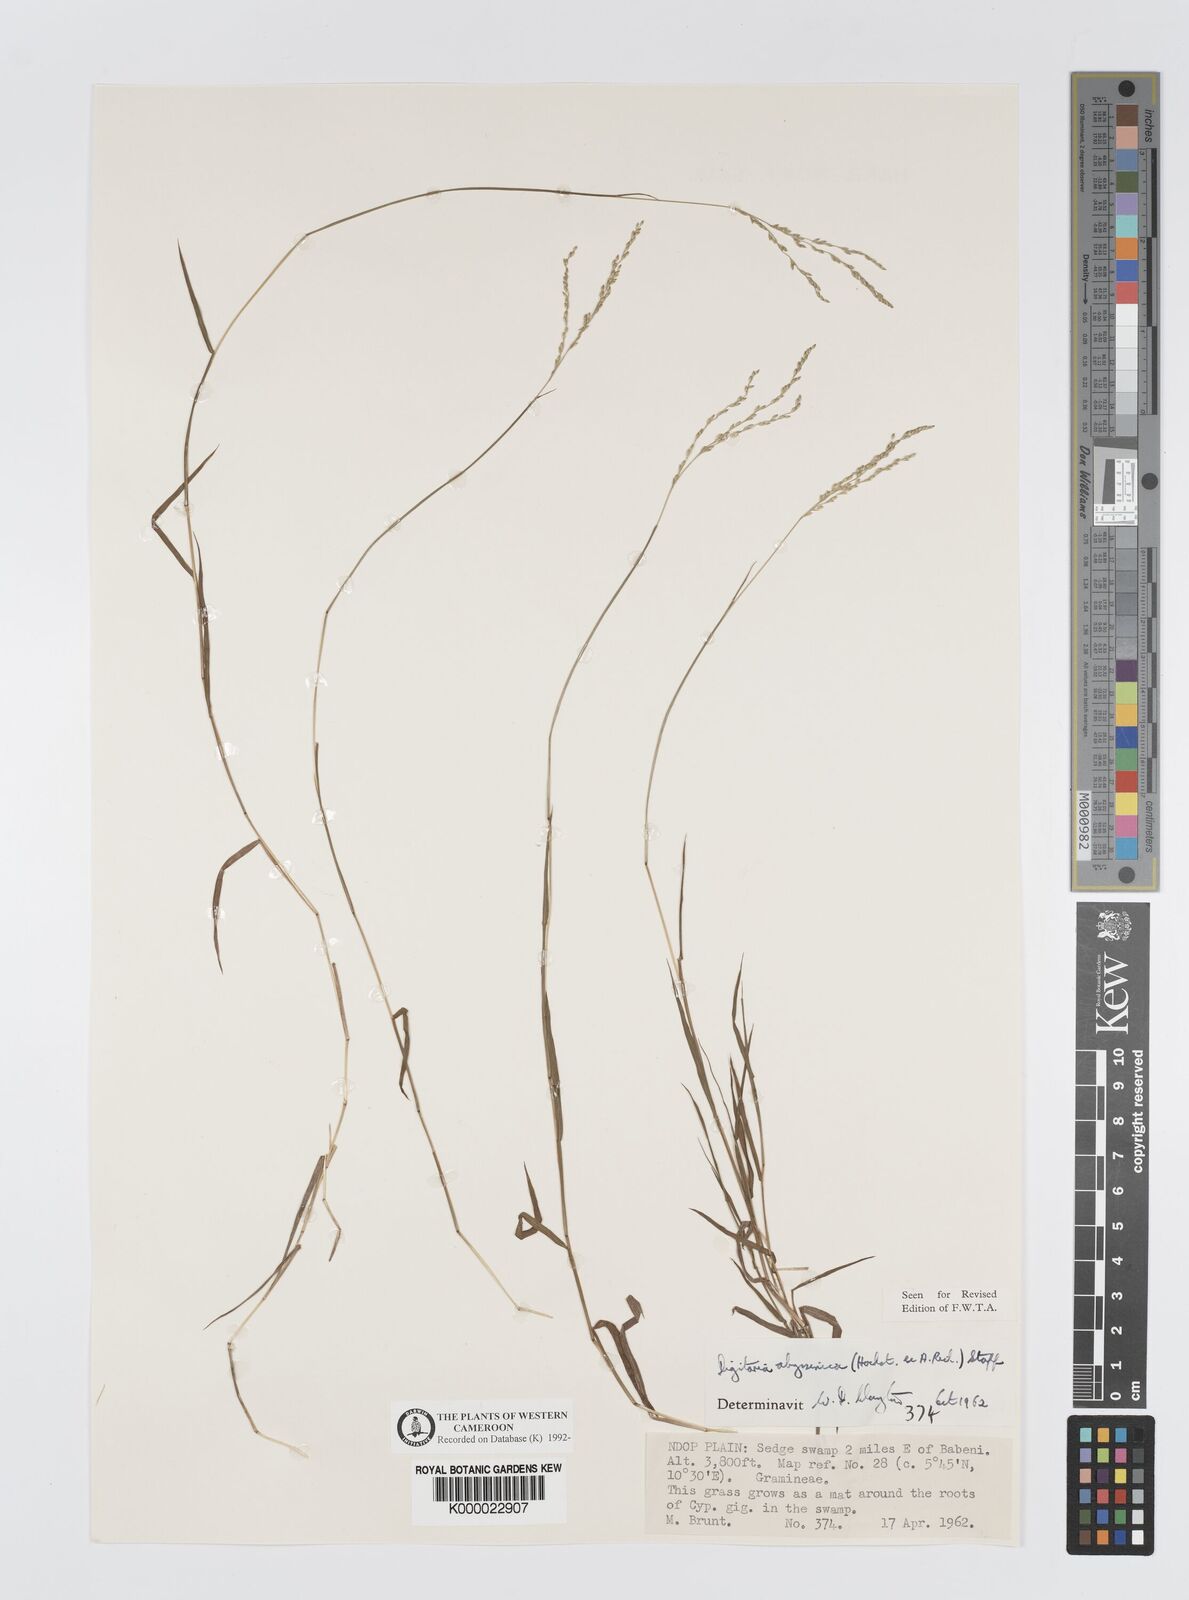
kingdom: Plantae
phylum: Tracheophyta
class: Liliopsida
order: Poales
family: Poaceae
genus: Digitaria
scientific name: Digitaria abyssinica
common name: African couchgrass
